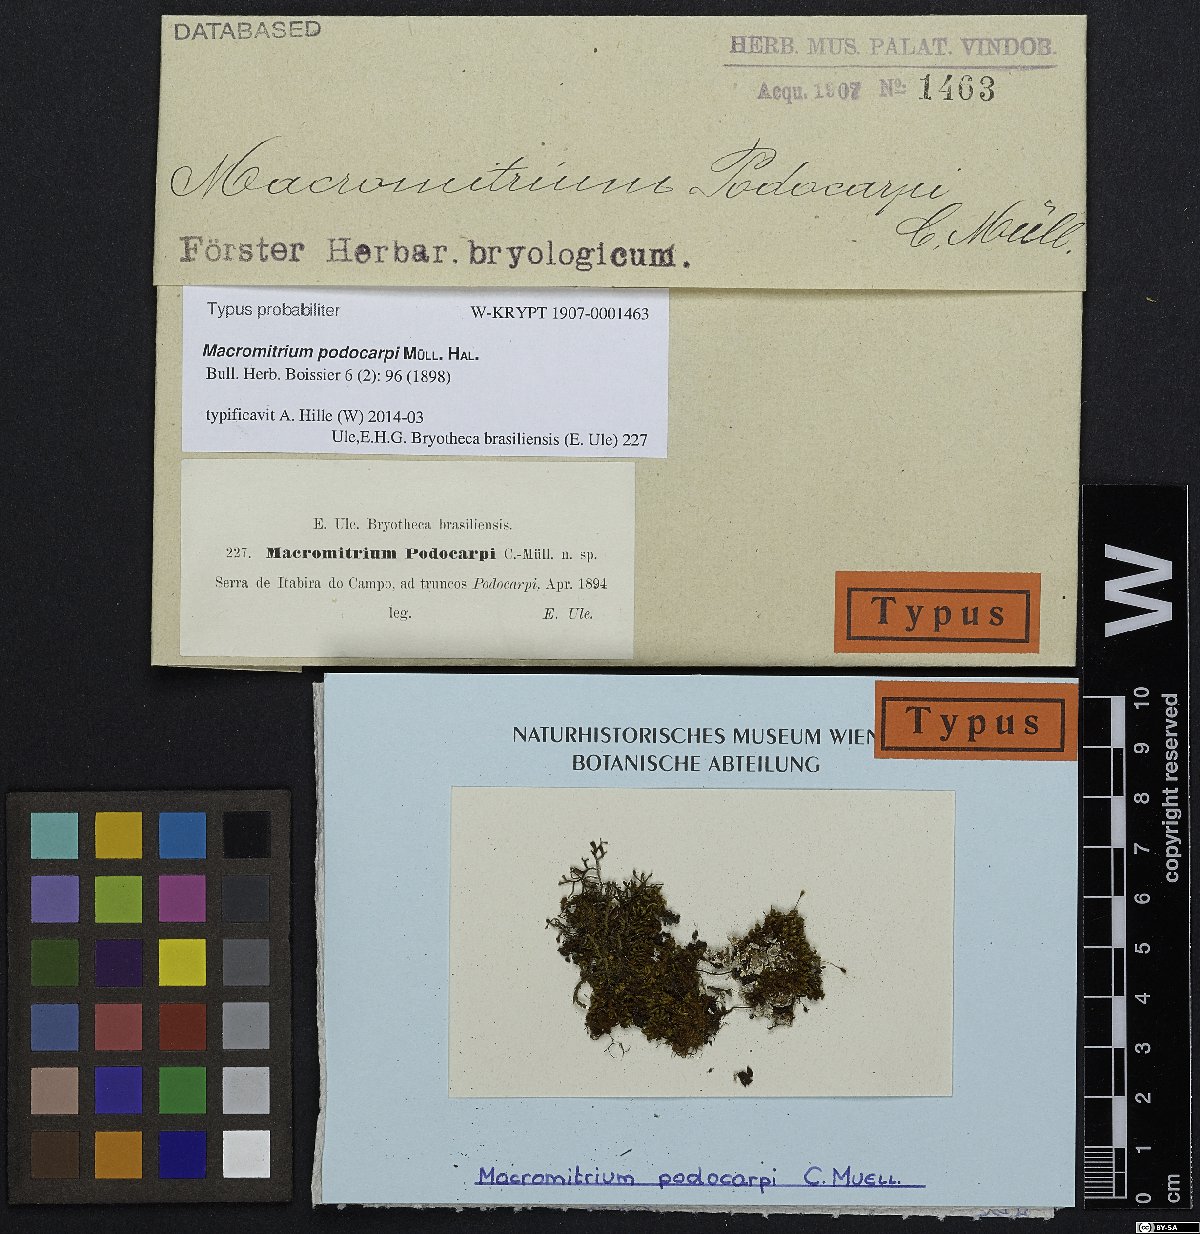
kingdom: Plantae
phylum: Bryophyta
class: Bryopsida
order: Orthotrichales
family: Orthotrichaceae
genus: Macromitrium
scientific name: Macromitrium pseudofimbriatum
